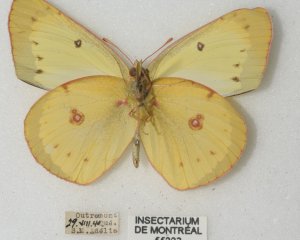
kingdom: Animalia
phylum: Arthropoda
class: Insecta
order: Lepidoptera
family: Pieridae
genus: Colias
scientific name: Colias philodice
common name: Clouded Sulphur
